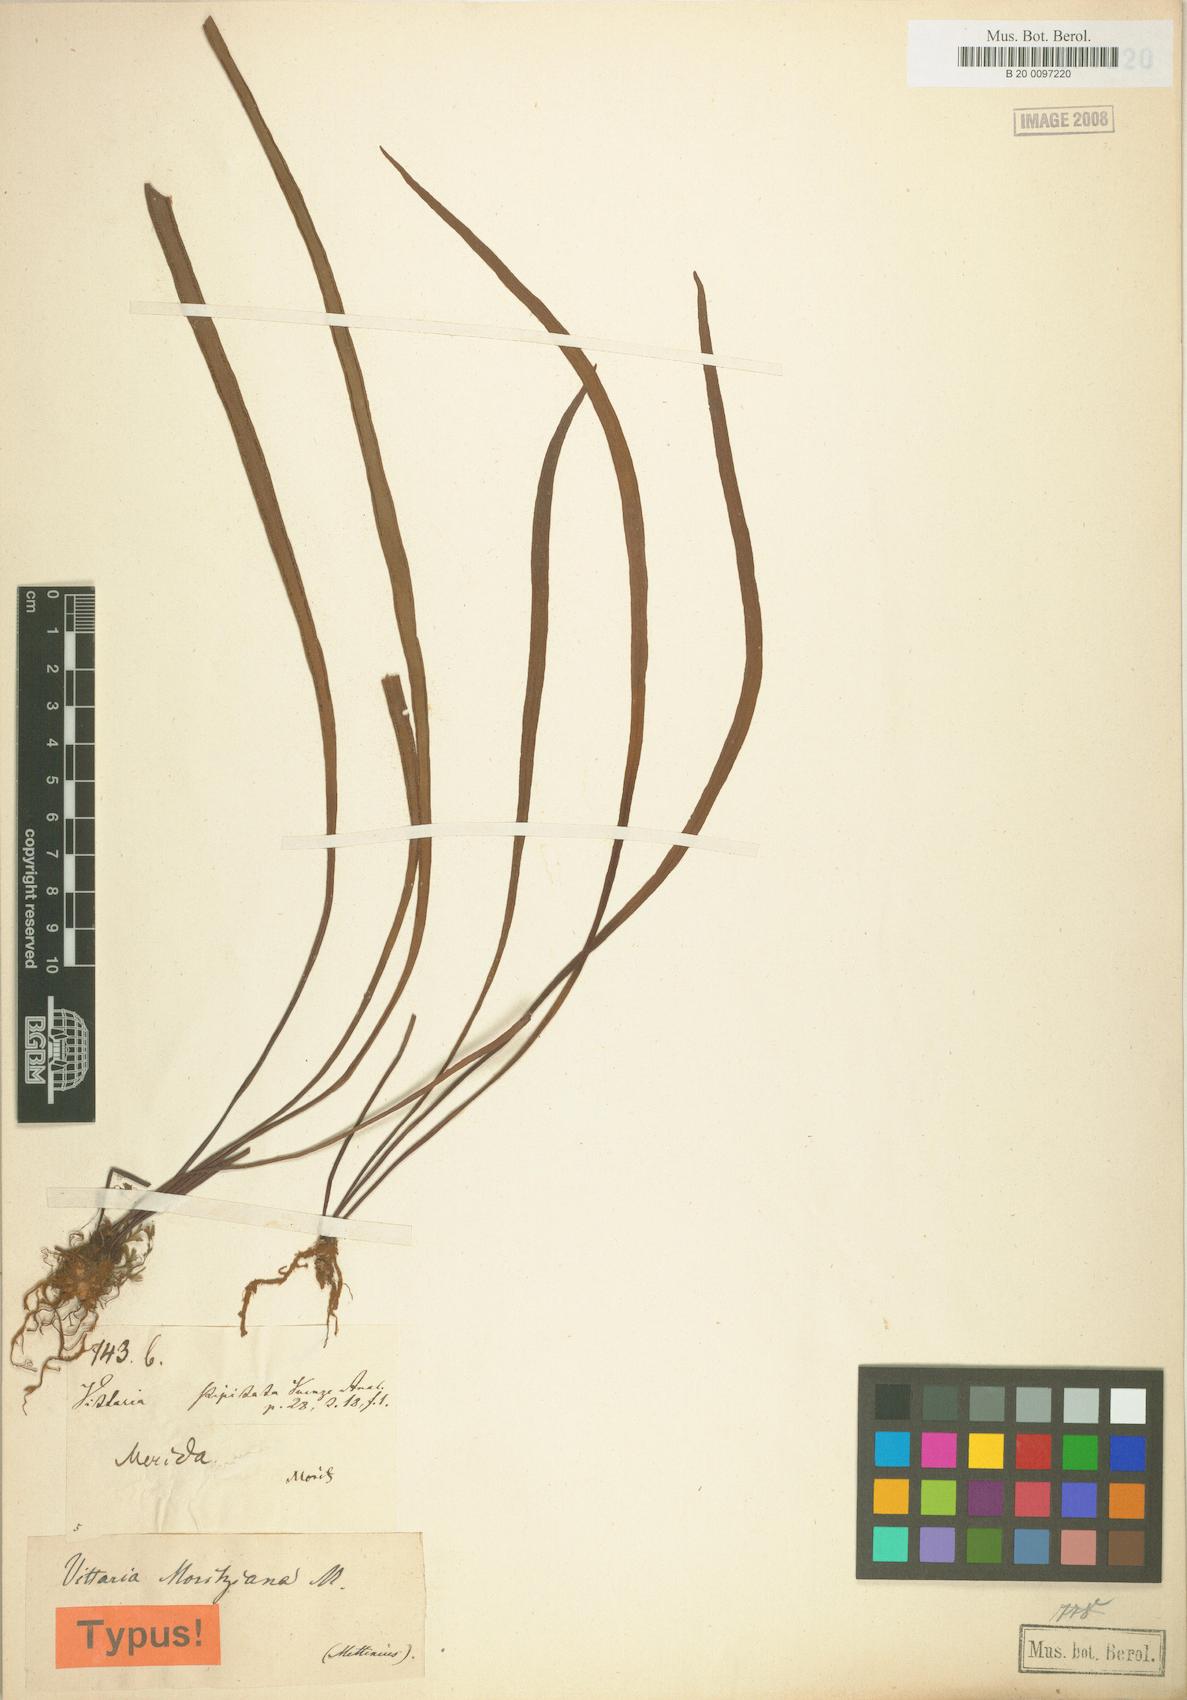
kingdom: Plantae
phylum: Tracheophyta
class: Polypodiopsida
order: Polypodiales
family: Pteridaceae
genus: Radiovittaria
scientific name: Radiovittaria moritziana
